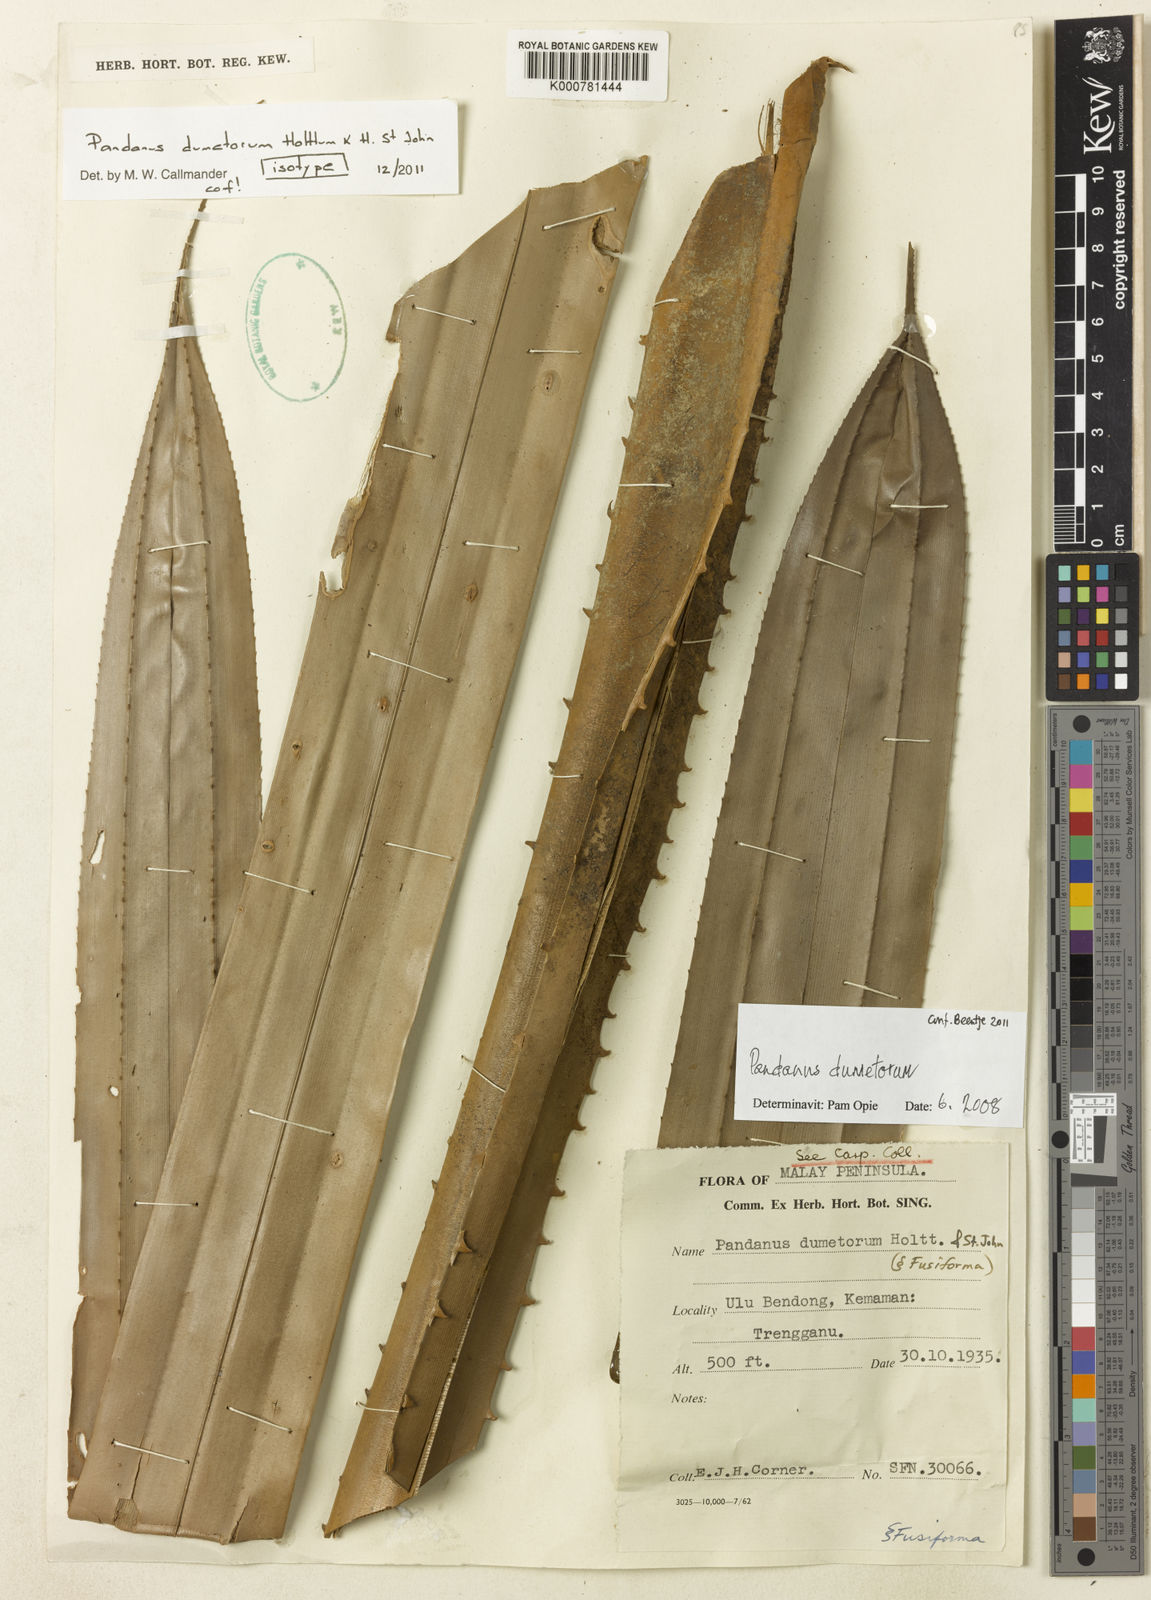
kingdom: Plantae
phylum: Tracheophyta
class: Liliopsida
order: Pandanales
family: Pandanaceae
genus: Benstonea
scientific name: Benstonea dumetorum
